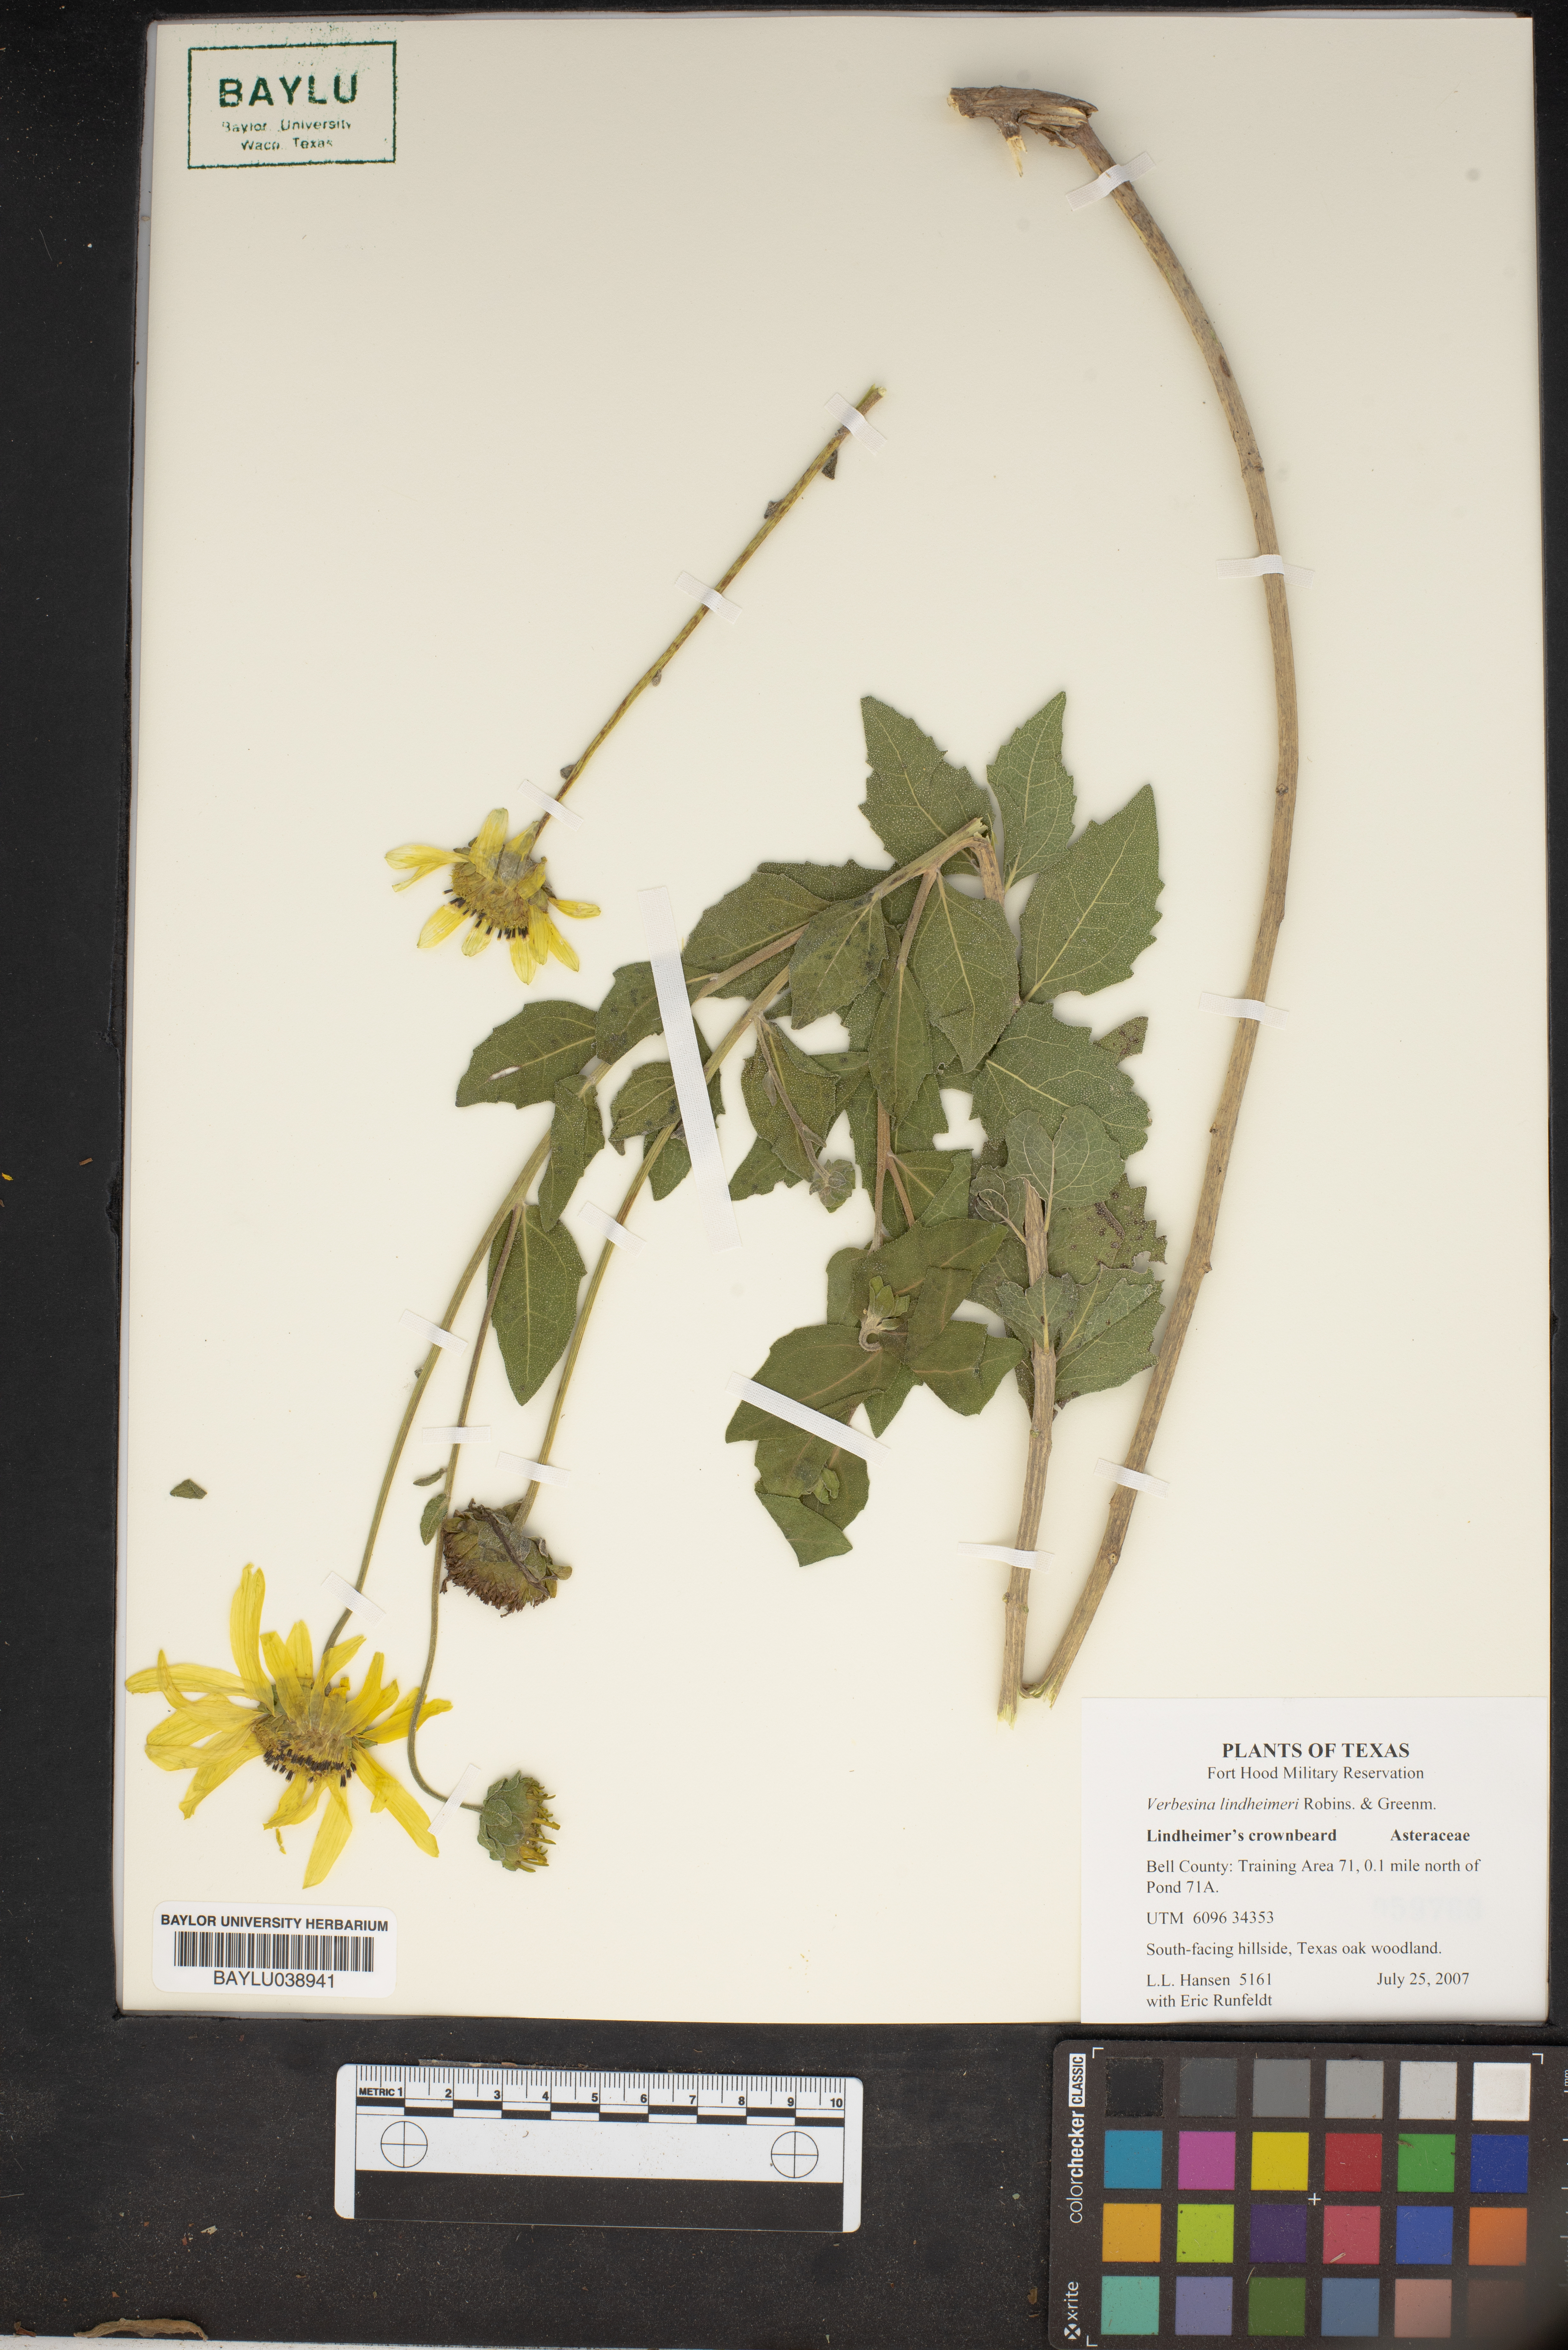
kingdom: Plantae
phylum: Tracheophyta
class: Magnoliopsida
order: Asterales
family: Asteraceae
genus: Verbesina
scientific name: Verbesina lindheimeri
